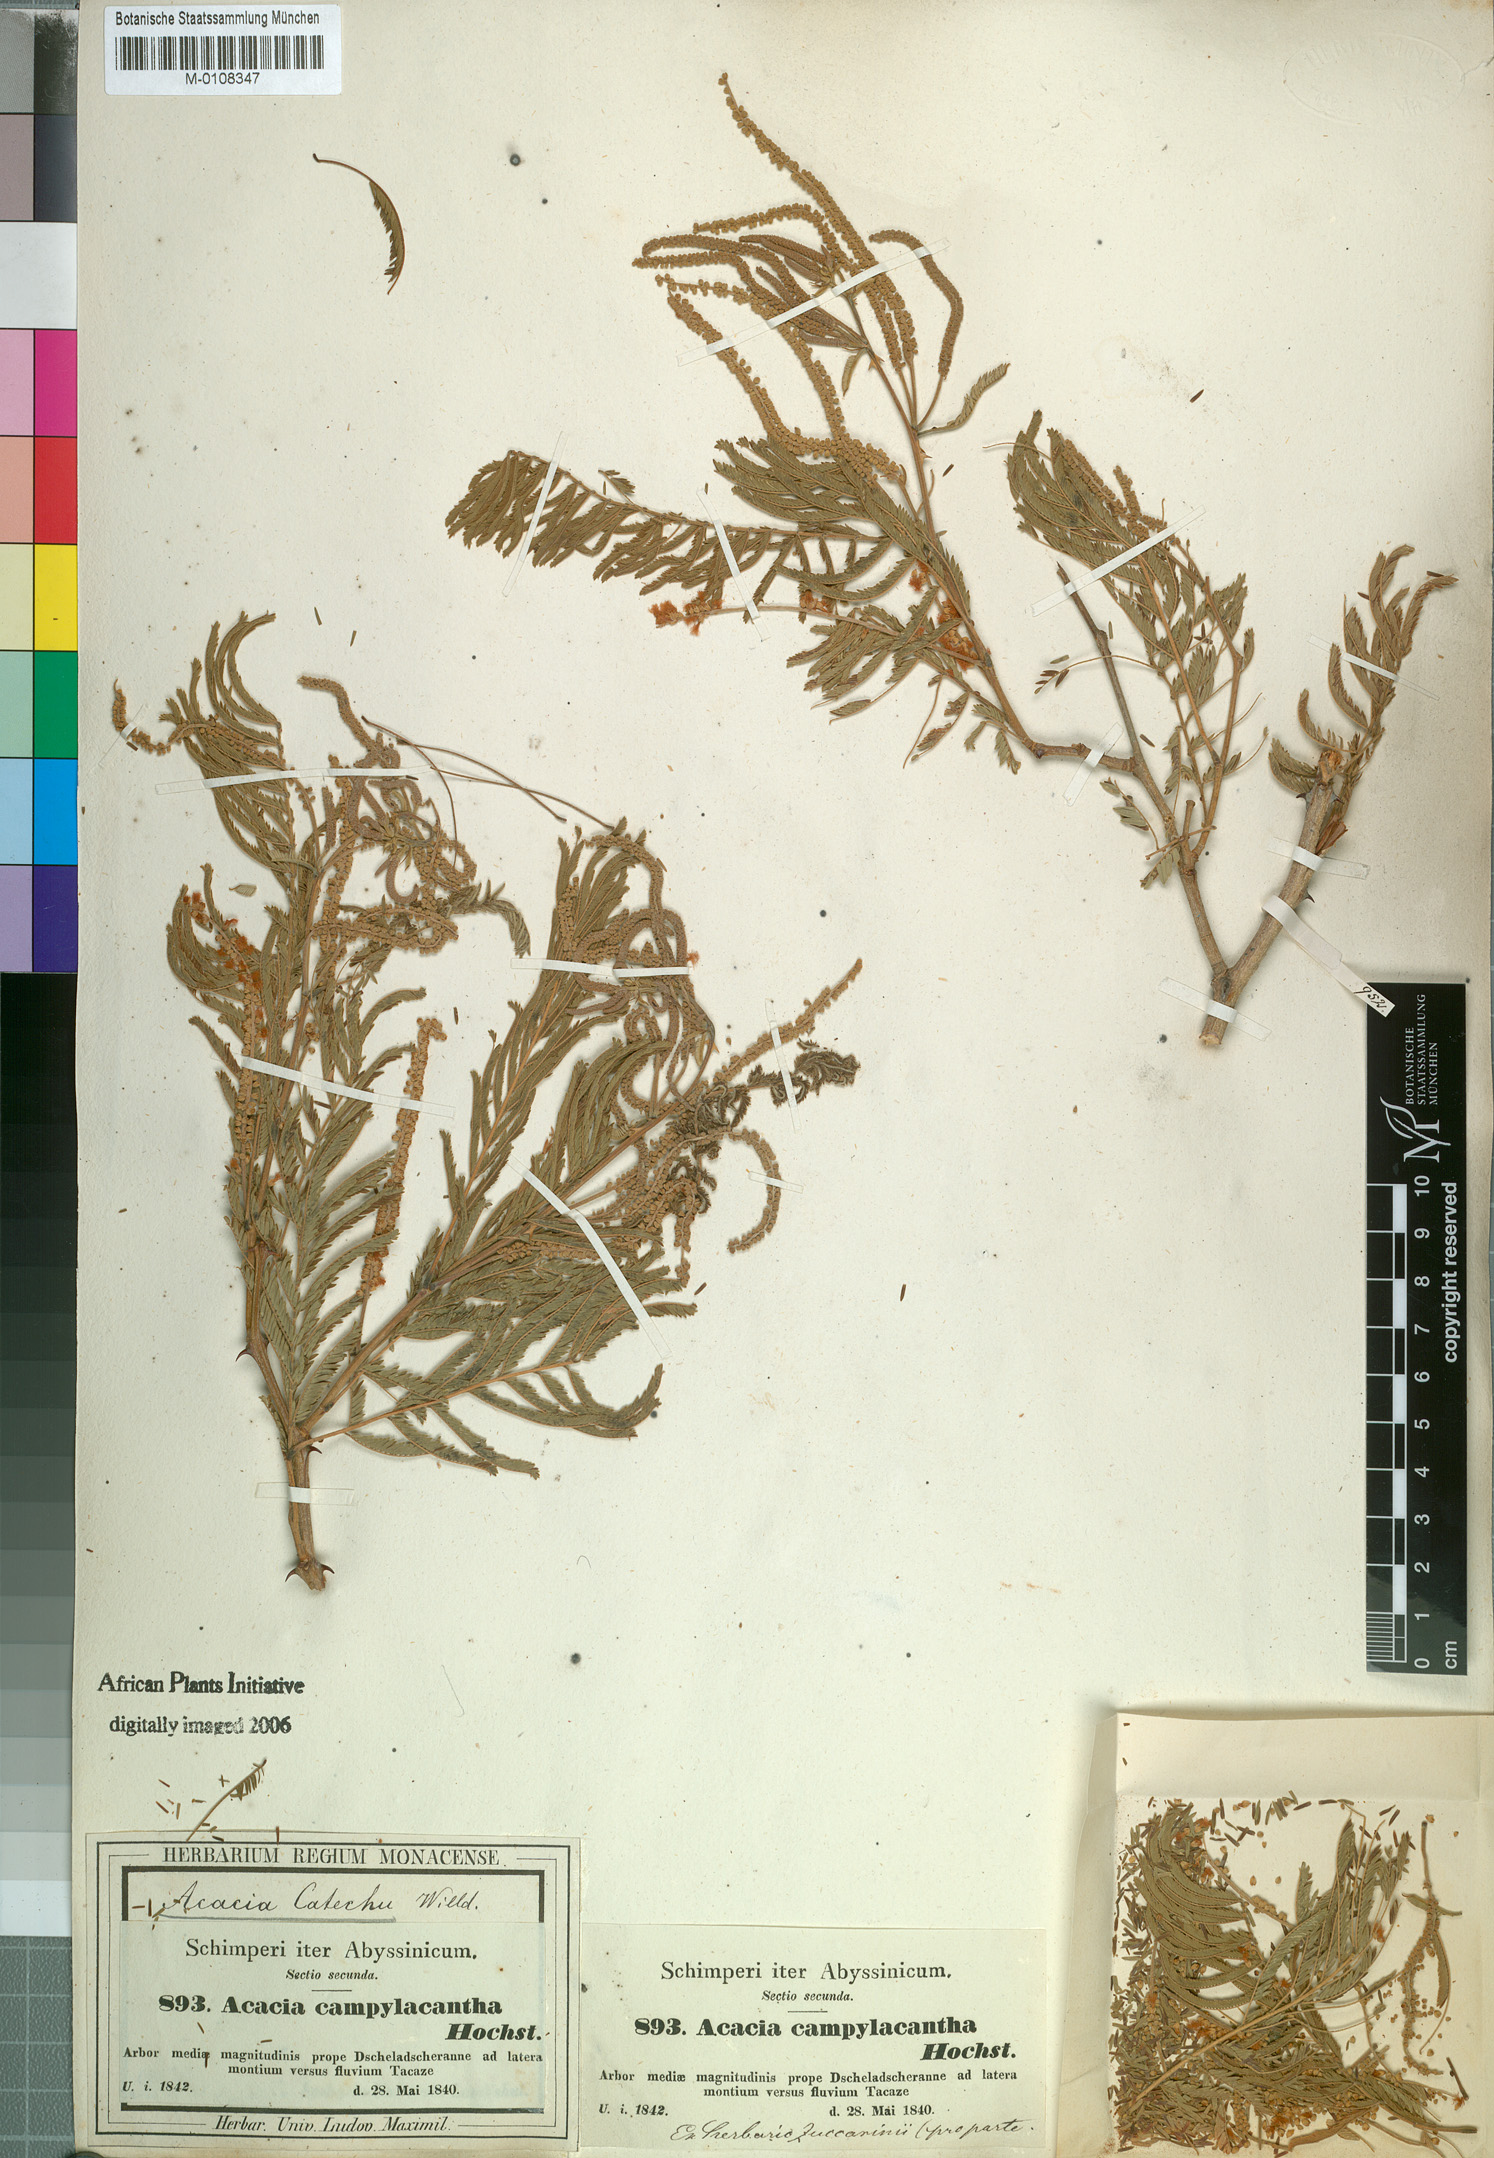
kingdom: Plantae
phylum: Tracheophyta
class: Magnoliopsida
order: Fabales
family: Fabaceae
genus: Senegalia
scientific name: Senegalia polyacantha
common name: Whitethorn
